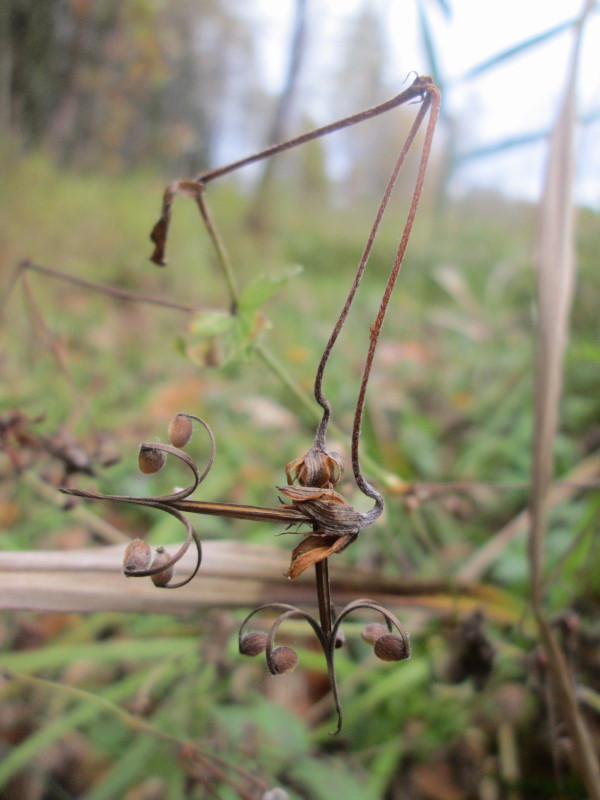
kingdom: Plantae
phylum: Tracheophyta
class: Magnoliopsida
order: Geraniales
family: Geraniaceae
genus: Erodium
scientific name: Erodium cicutarium
